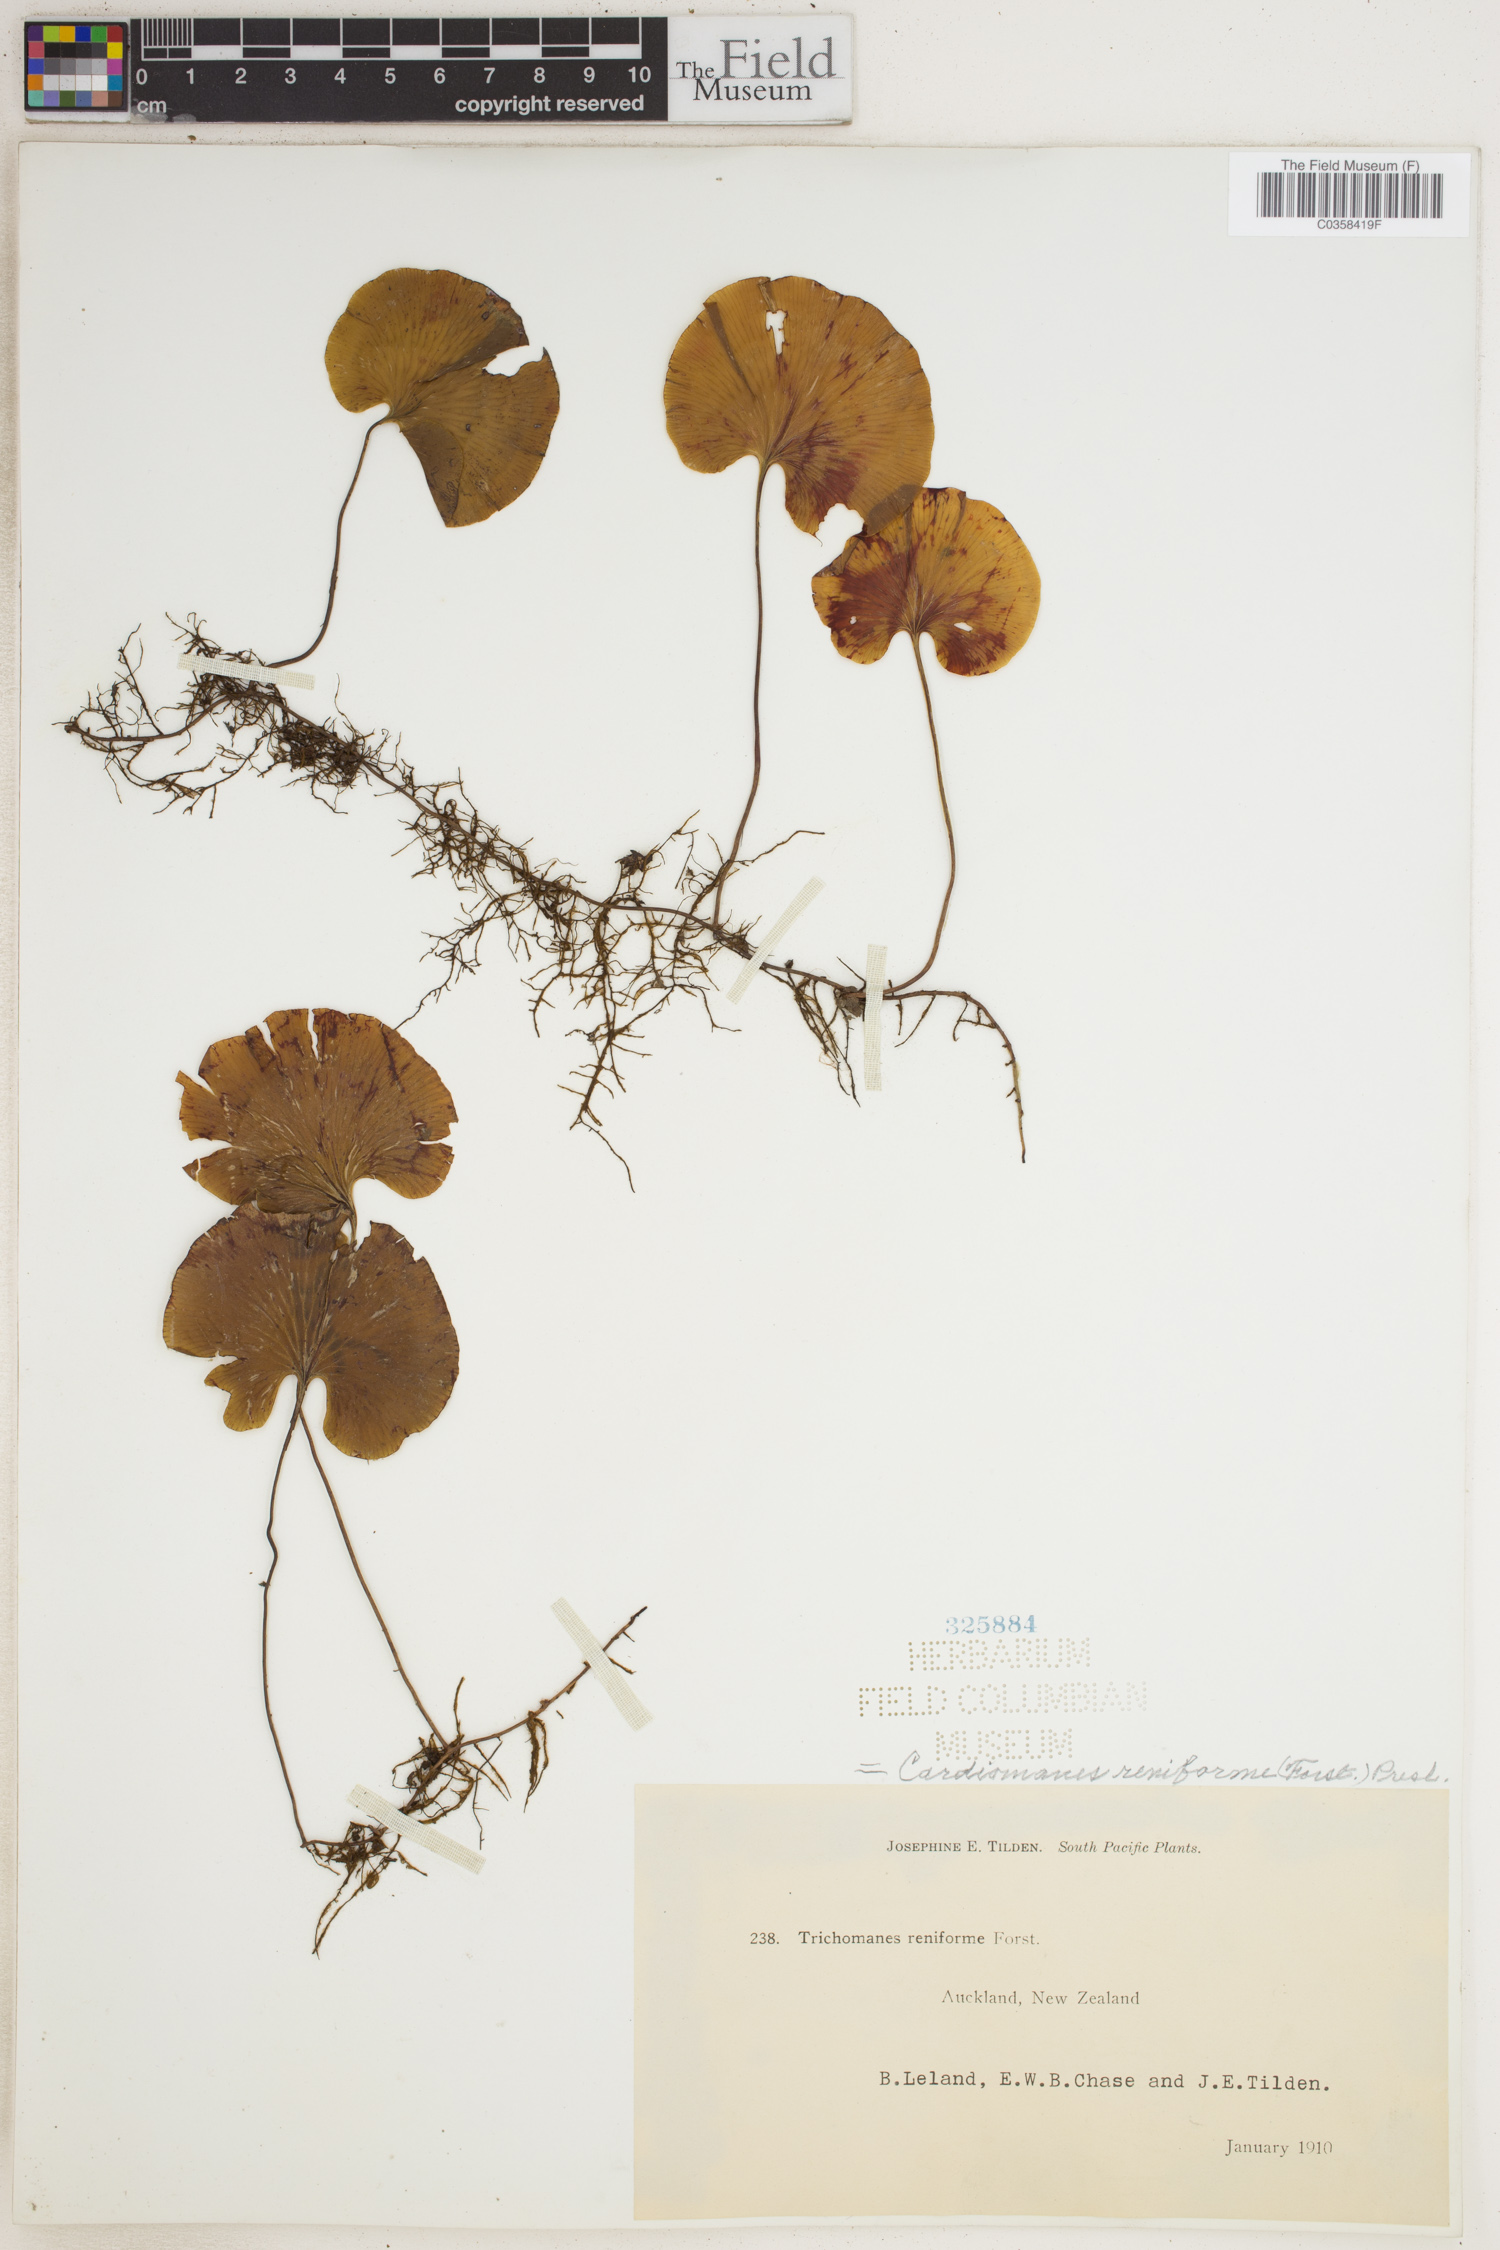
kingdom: Plantae
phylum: Tracheophyta
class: Polypodiopsida
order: Hymenophyllales
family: Hymenophyllaceae
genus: Hymenophyllum
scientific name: Hymenophyllum nephrophyllum
